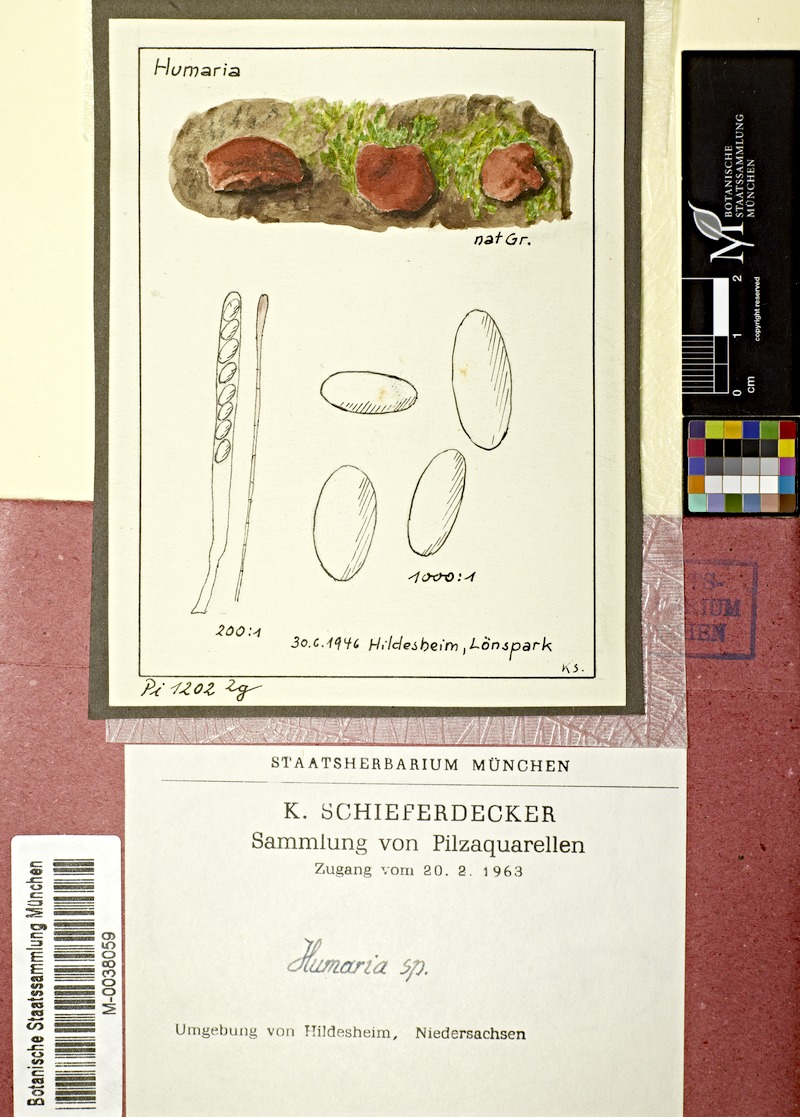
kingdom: Fungi
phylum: Ascomycota
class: Pezizomycetes
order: Pezizales
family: Pyronemataceae
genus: Humaria
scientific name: Humaria
